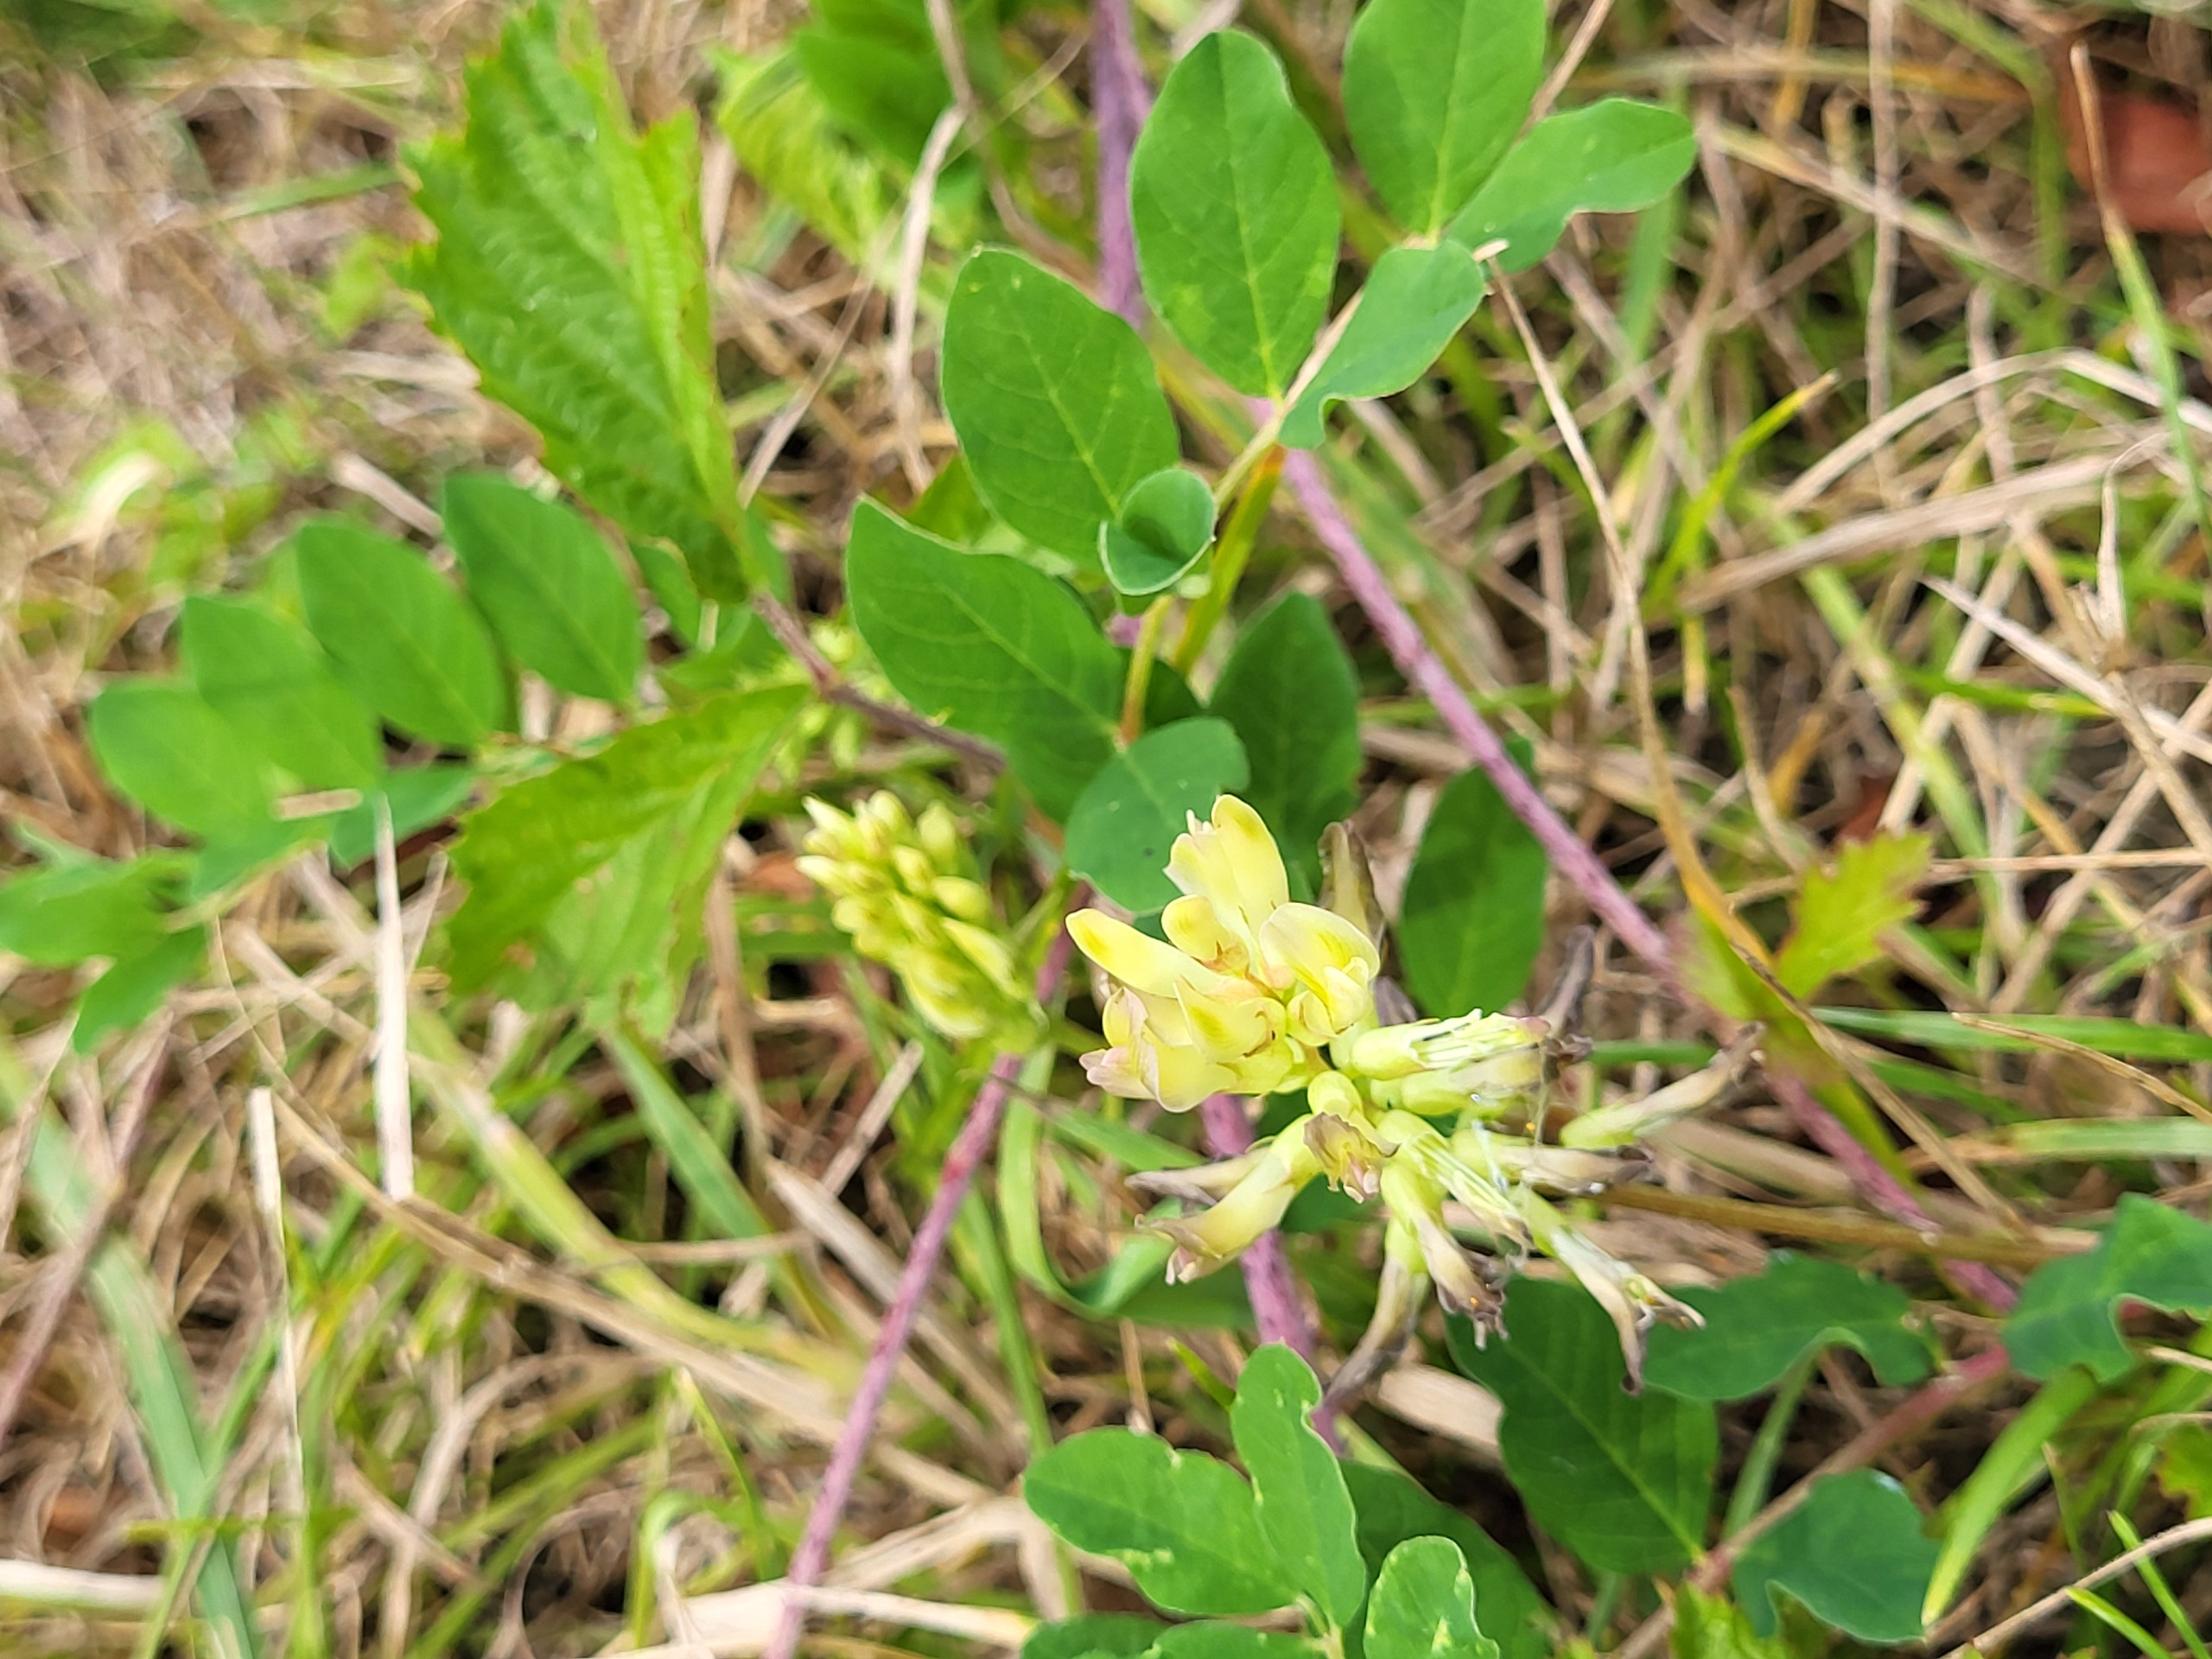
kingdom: Plantae
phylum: Tracheophyta
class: Magnoliopsida
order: Fabales
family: Fabaceae
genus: Astragalus
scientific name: Astragalus glycyphyllos
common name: Sød astragel
